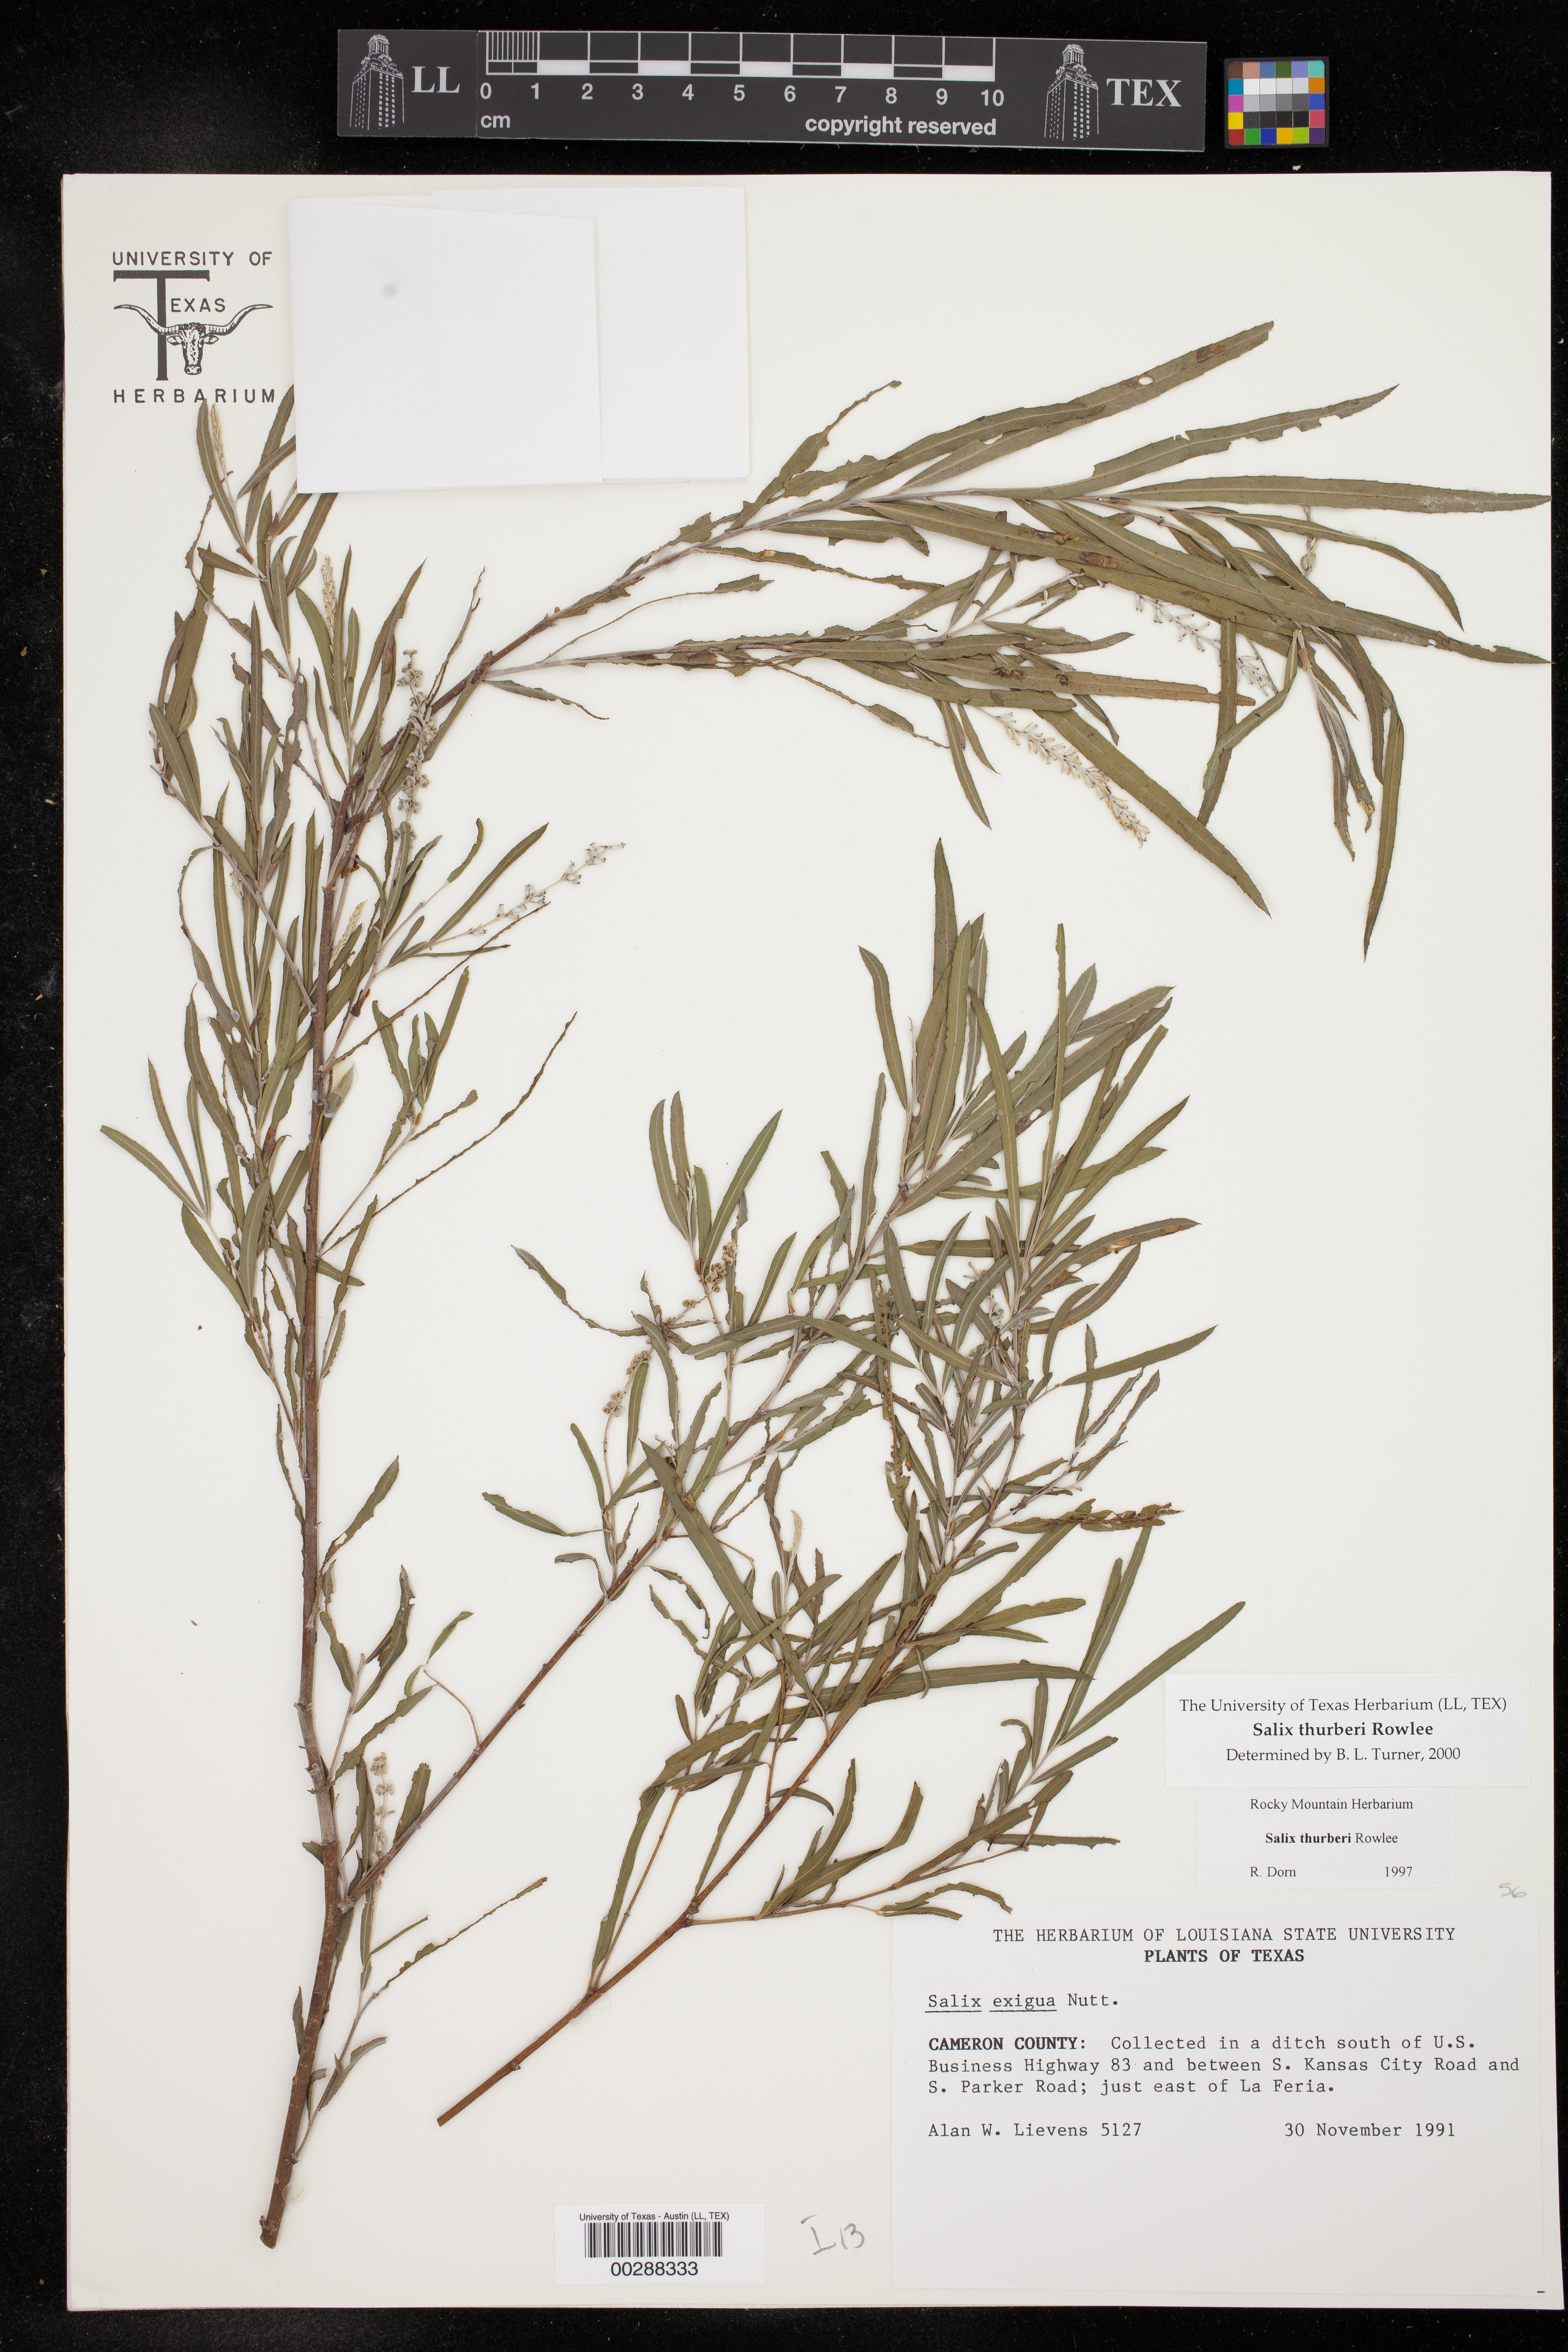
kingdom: Plantae
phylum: Tracheophyta
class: Magnoliopsida
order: Malpighiales
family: Salicaceae
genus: Salix
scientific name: Salix exigua
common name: Coyote willow
